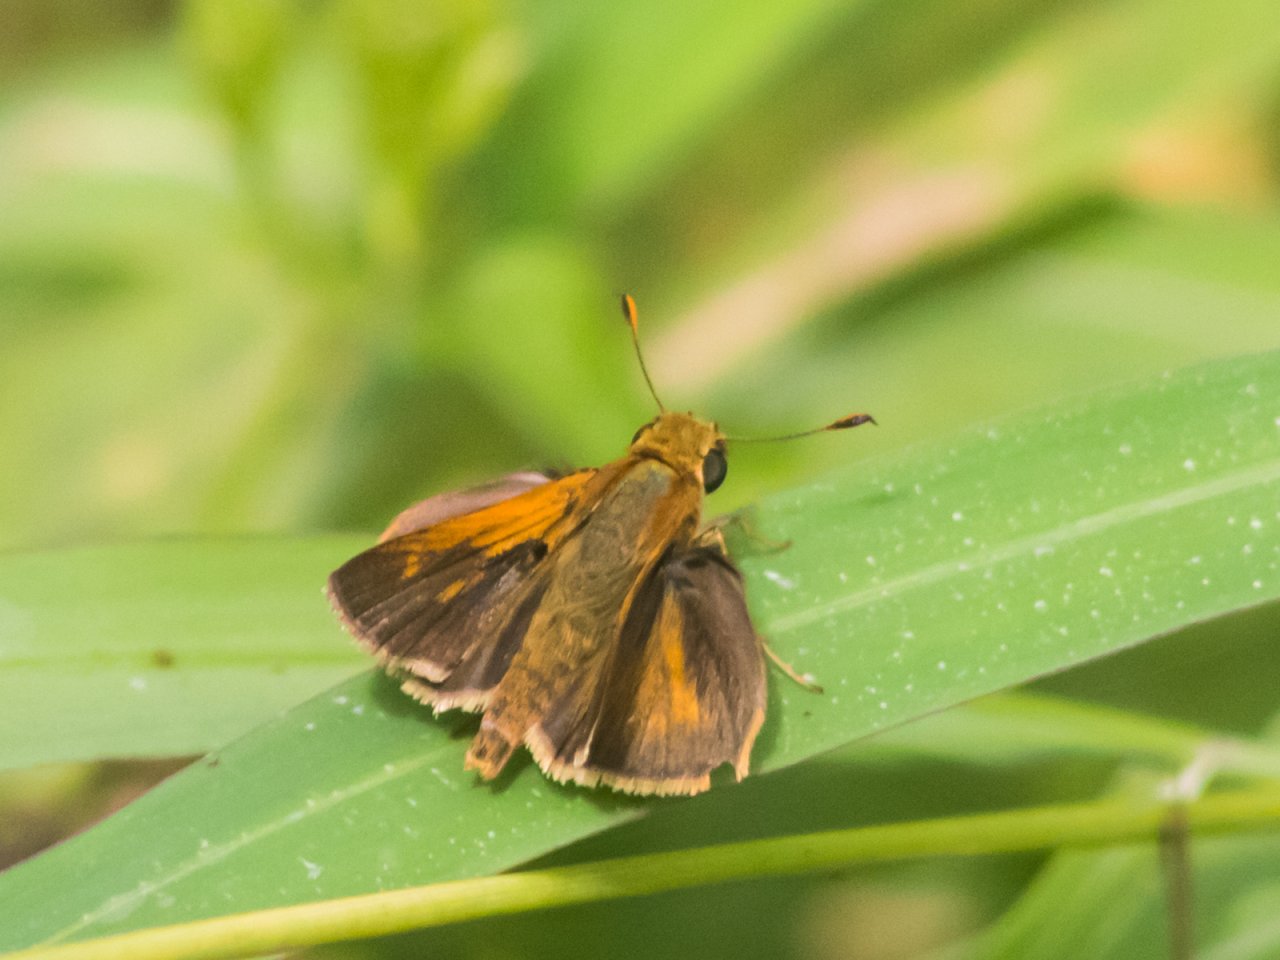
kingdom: Animalia
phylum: Arthropoda
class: Insecta
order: Lepidoptera
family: Hesperiidae
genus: Wallengrenia
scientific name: Wallengrenia otho
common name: Southern Broken-Dash
